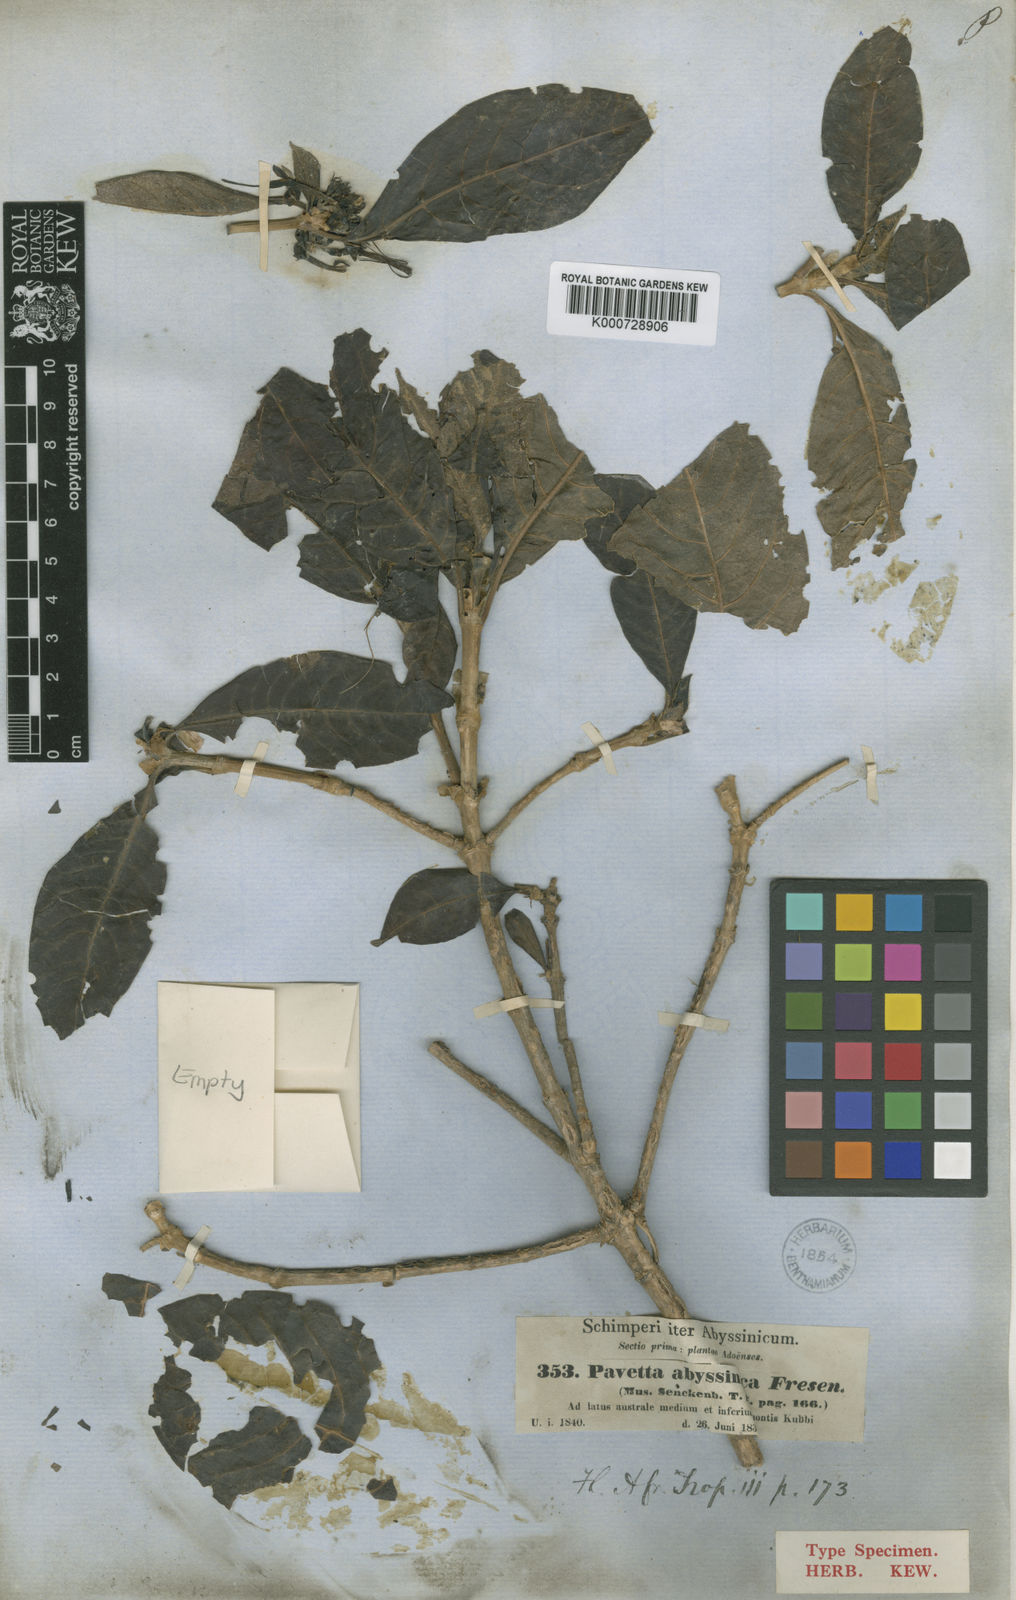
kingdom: Plantae
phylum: Tracheophyta
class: Magnoliopsida
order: Gentianales
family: Rubiaceae
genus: Pavetta
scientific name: Pavetta abyssinica
